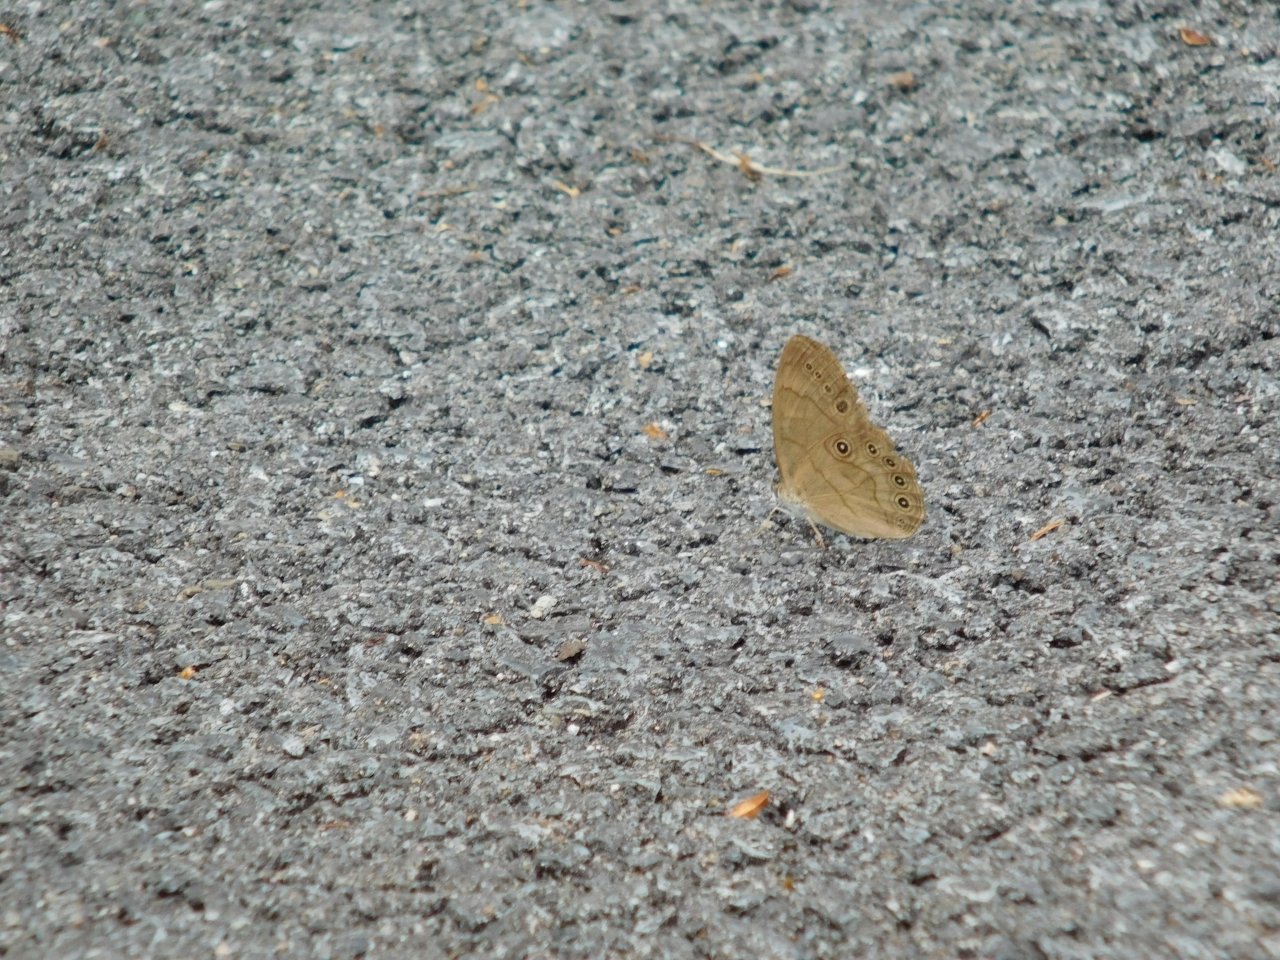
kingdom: Animalia
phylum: Arthropoda
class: Insecta
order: Lepidoptera
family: Nymphalidae
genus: Lethe
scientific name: Lethe eurydice
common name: Appalachian Eyed Brown
